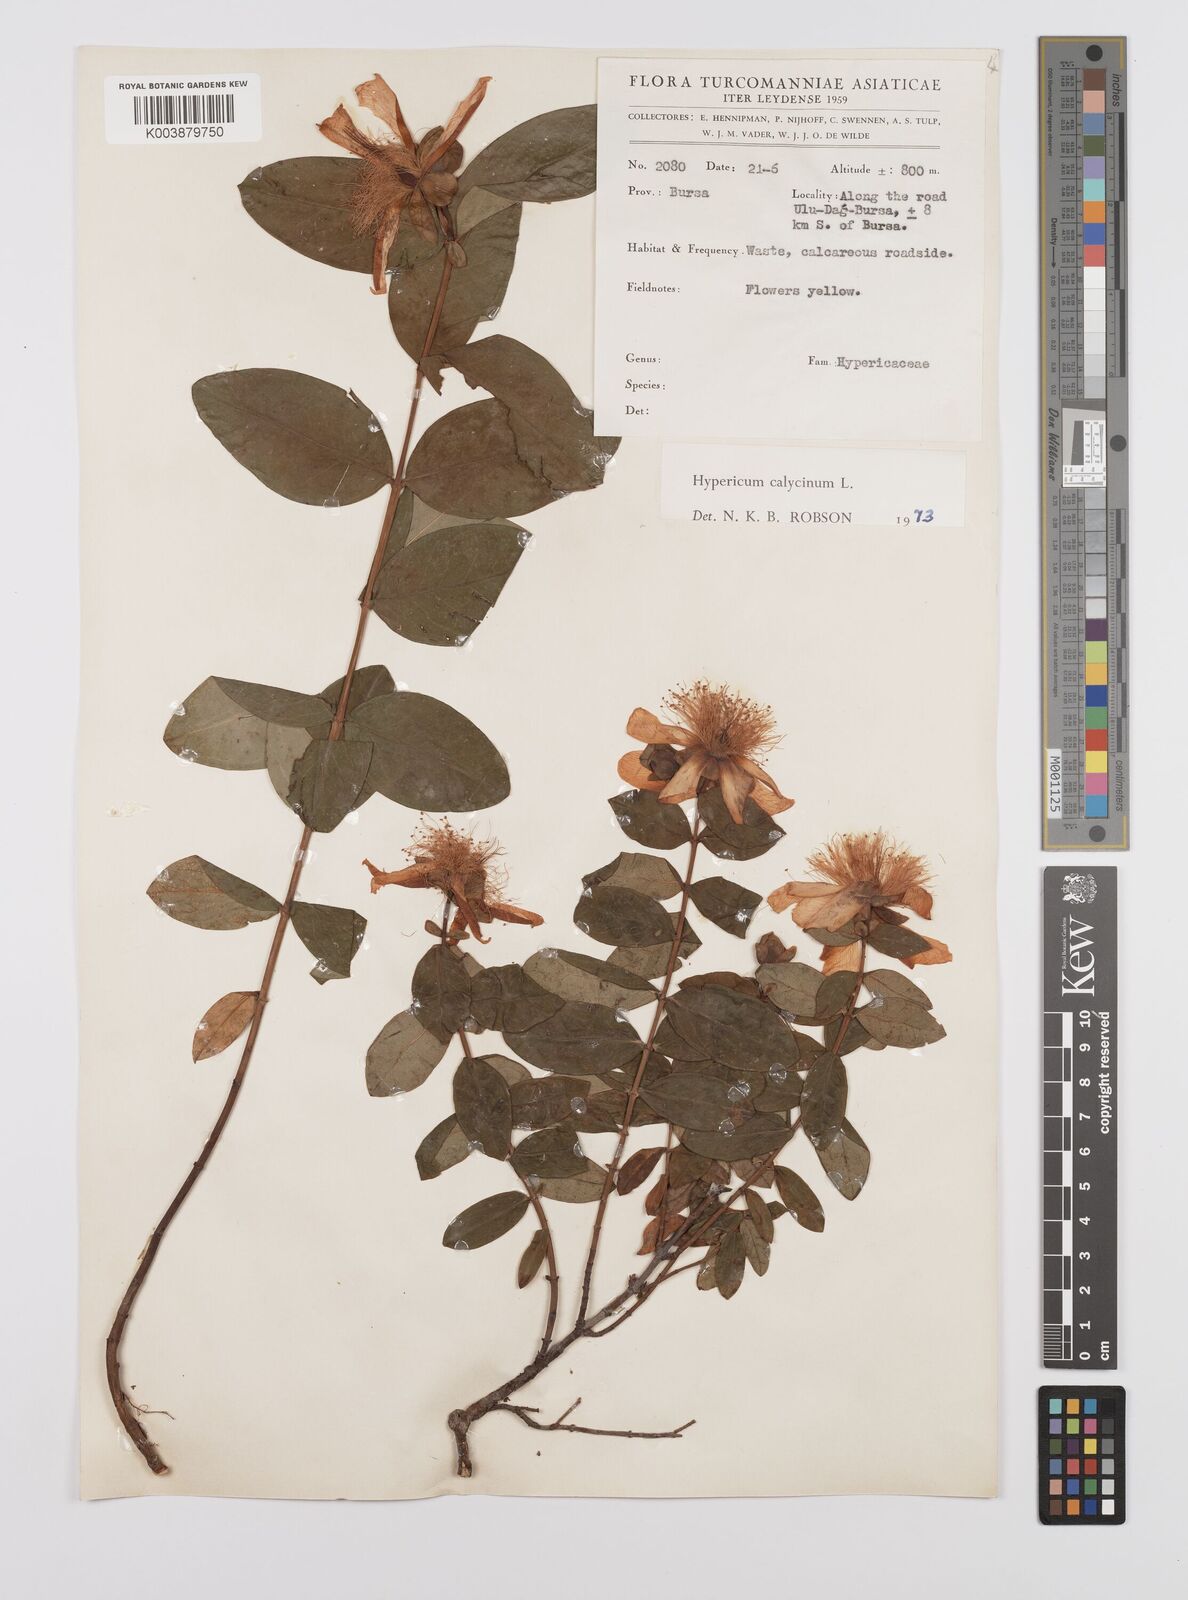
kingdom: Plantae
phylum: Tracheophyta
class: Magnoliopsida
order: Malpighiales
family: Hypericaceae
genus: Hypericum
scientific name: Hypericum calycinum
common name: Rose-of-sharon
